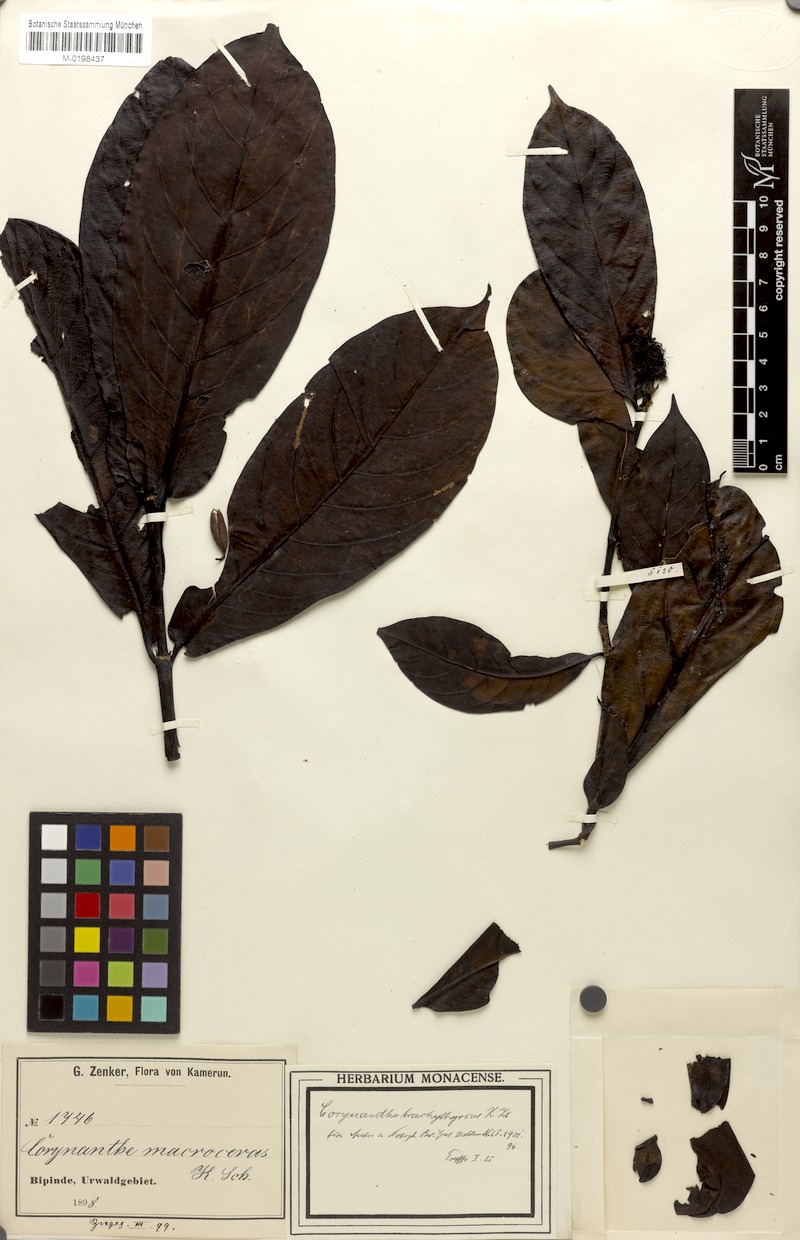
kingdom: Plantae
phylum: Tracheophyta
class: Magnoliopsida
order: Gentianales
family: Rubiaceae
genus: Corynanthe
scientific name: Corynanthe macroceras
